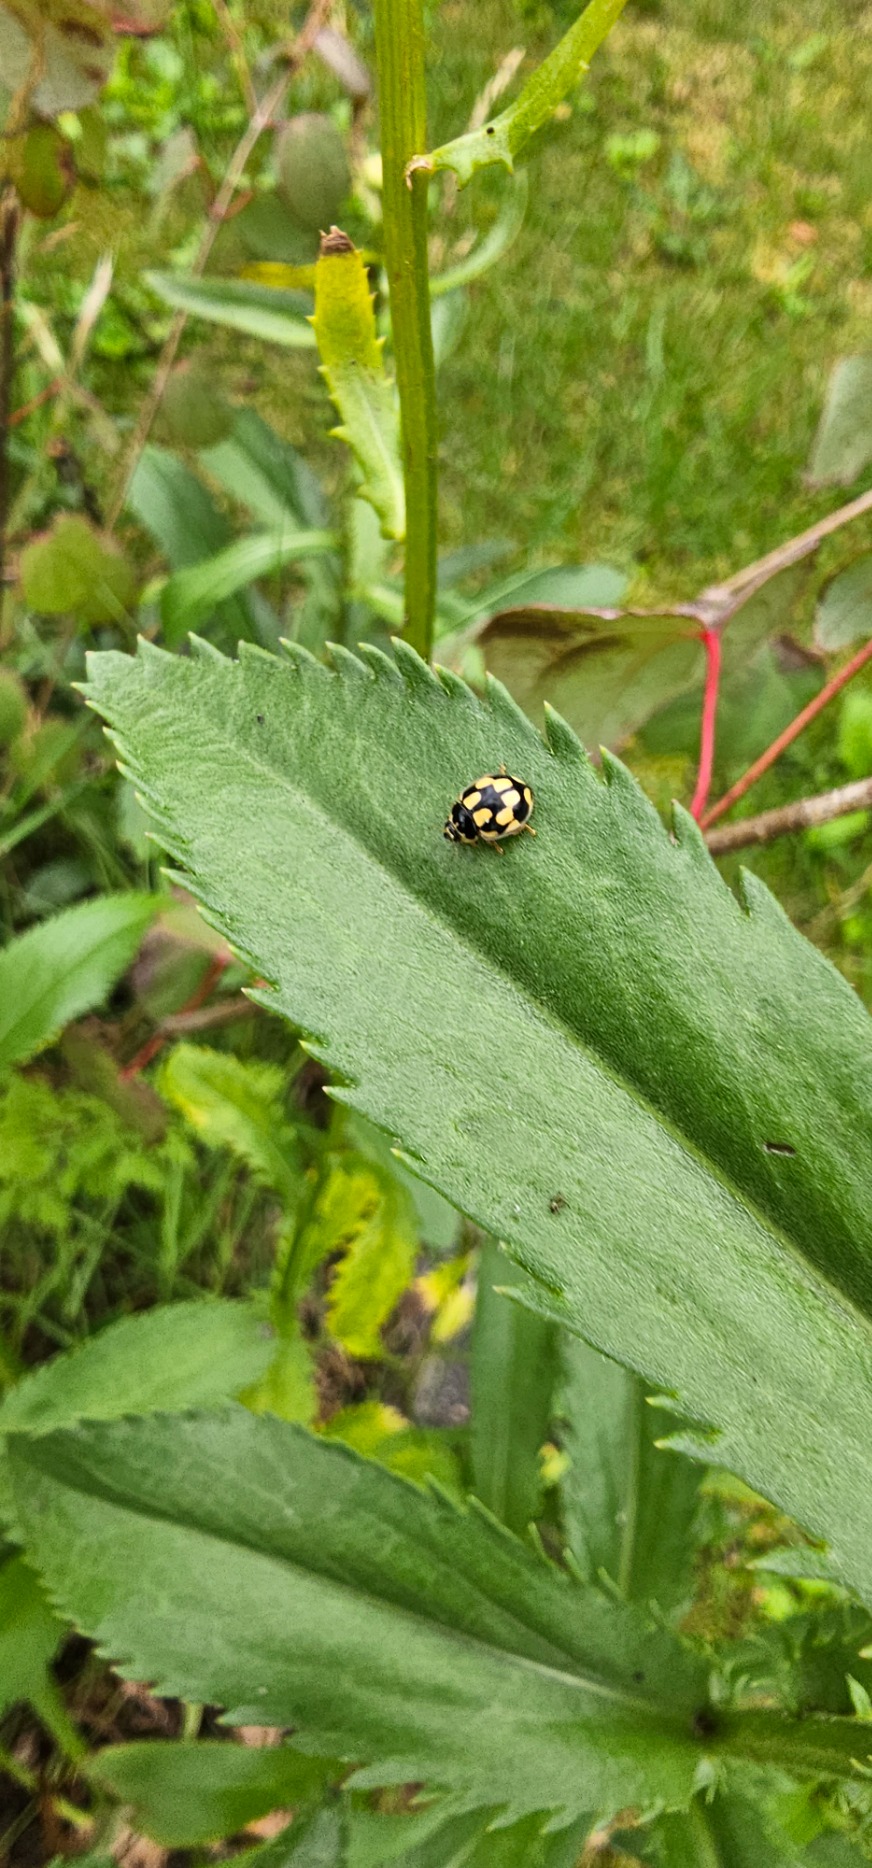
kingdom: Animalia
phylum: Arthropoda
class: Insecta
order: Coleoptera
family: Coccinellidae
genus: Propylaea
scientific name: Propylaea quatuordecimpunctata
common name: Skakbræt
